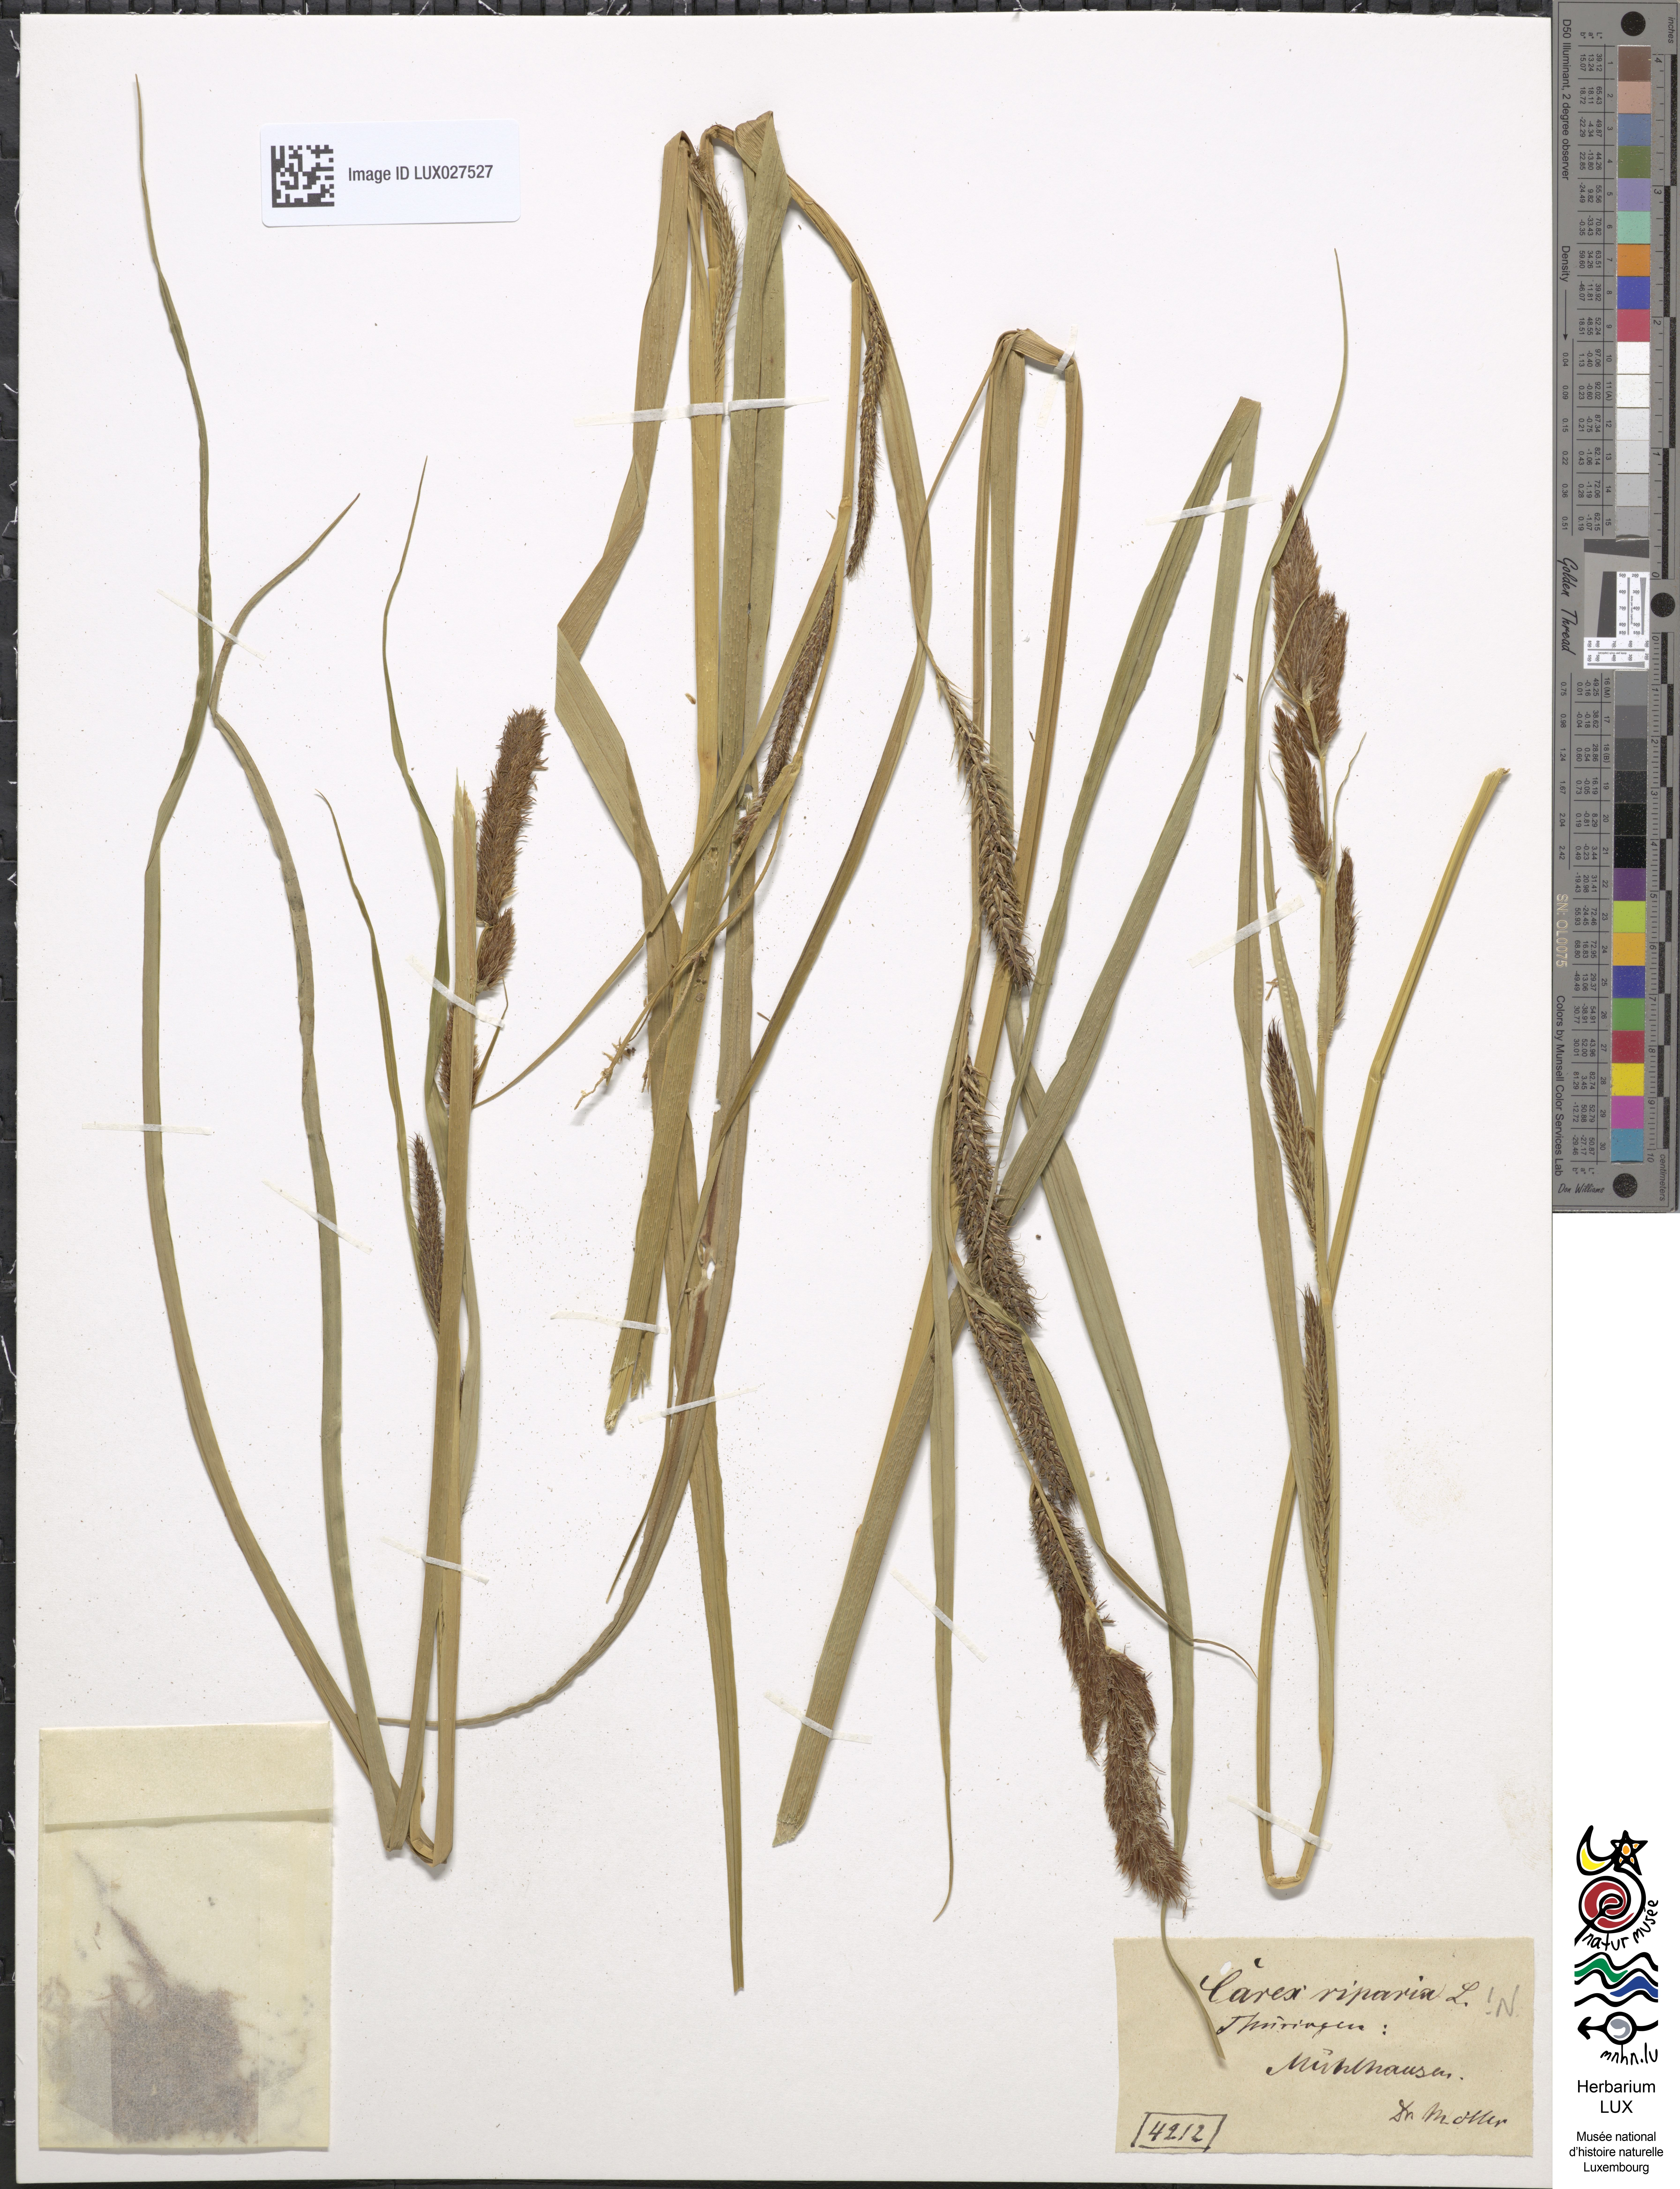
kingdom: Plantae
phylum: Tracheophyta
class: Liliopsida
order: Poales
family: Cyperaceae
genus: Carex
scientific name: Carex riparia
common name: Greater pond-sedge
